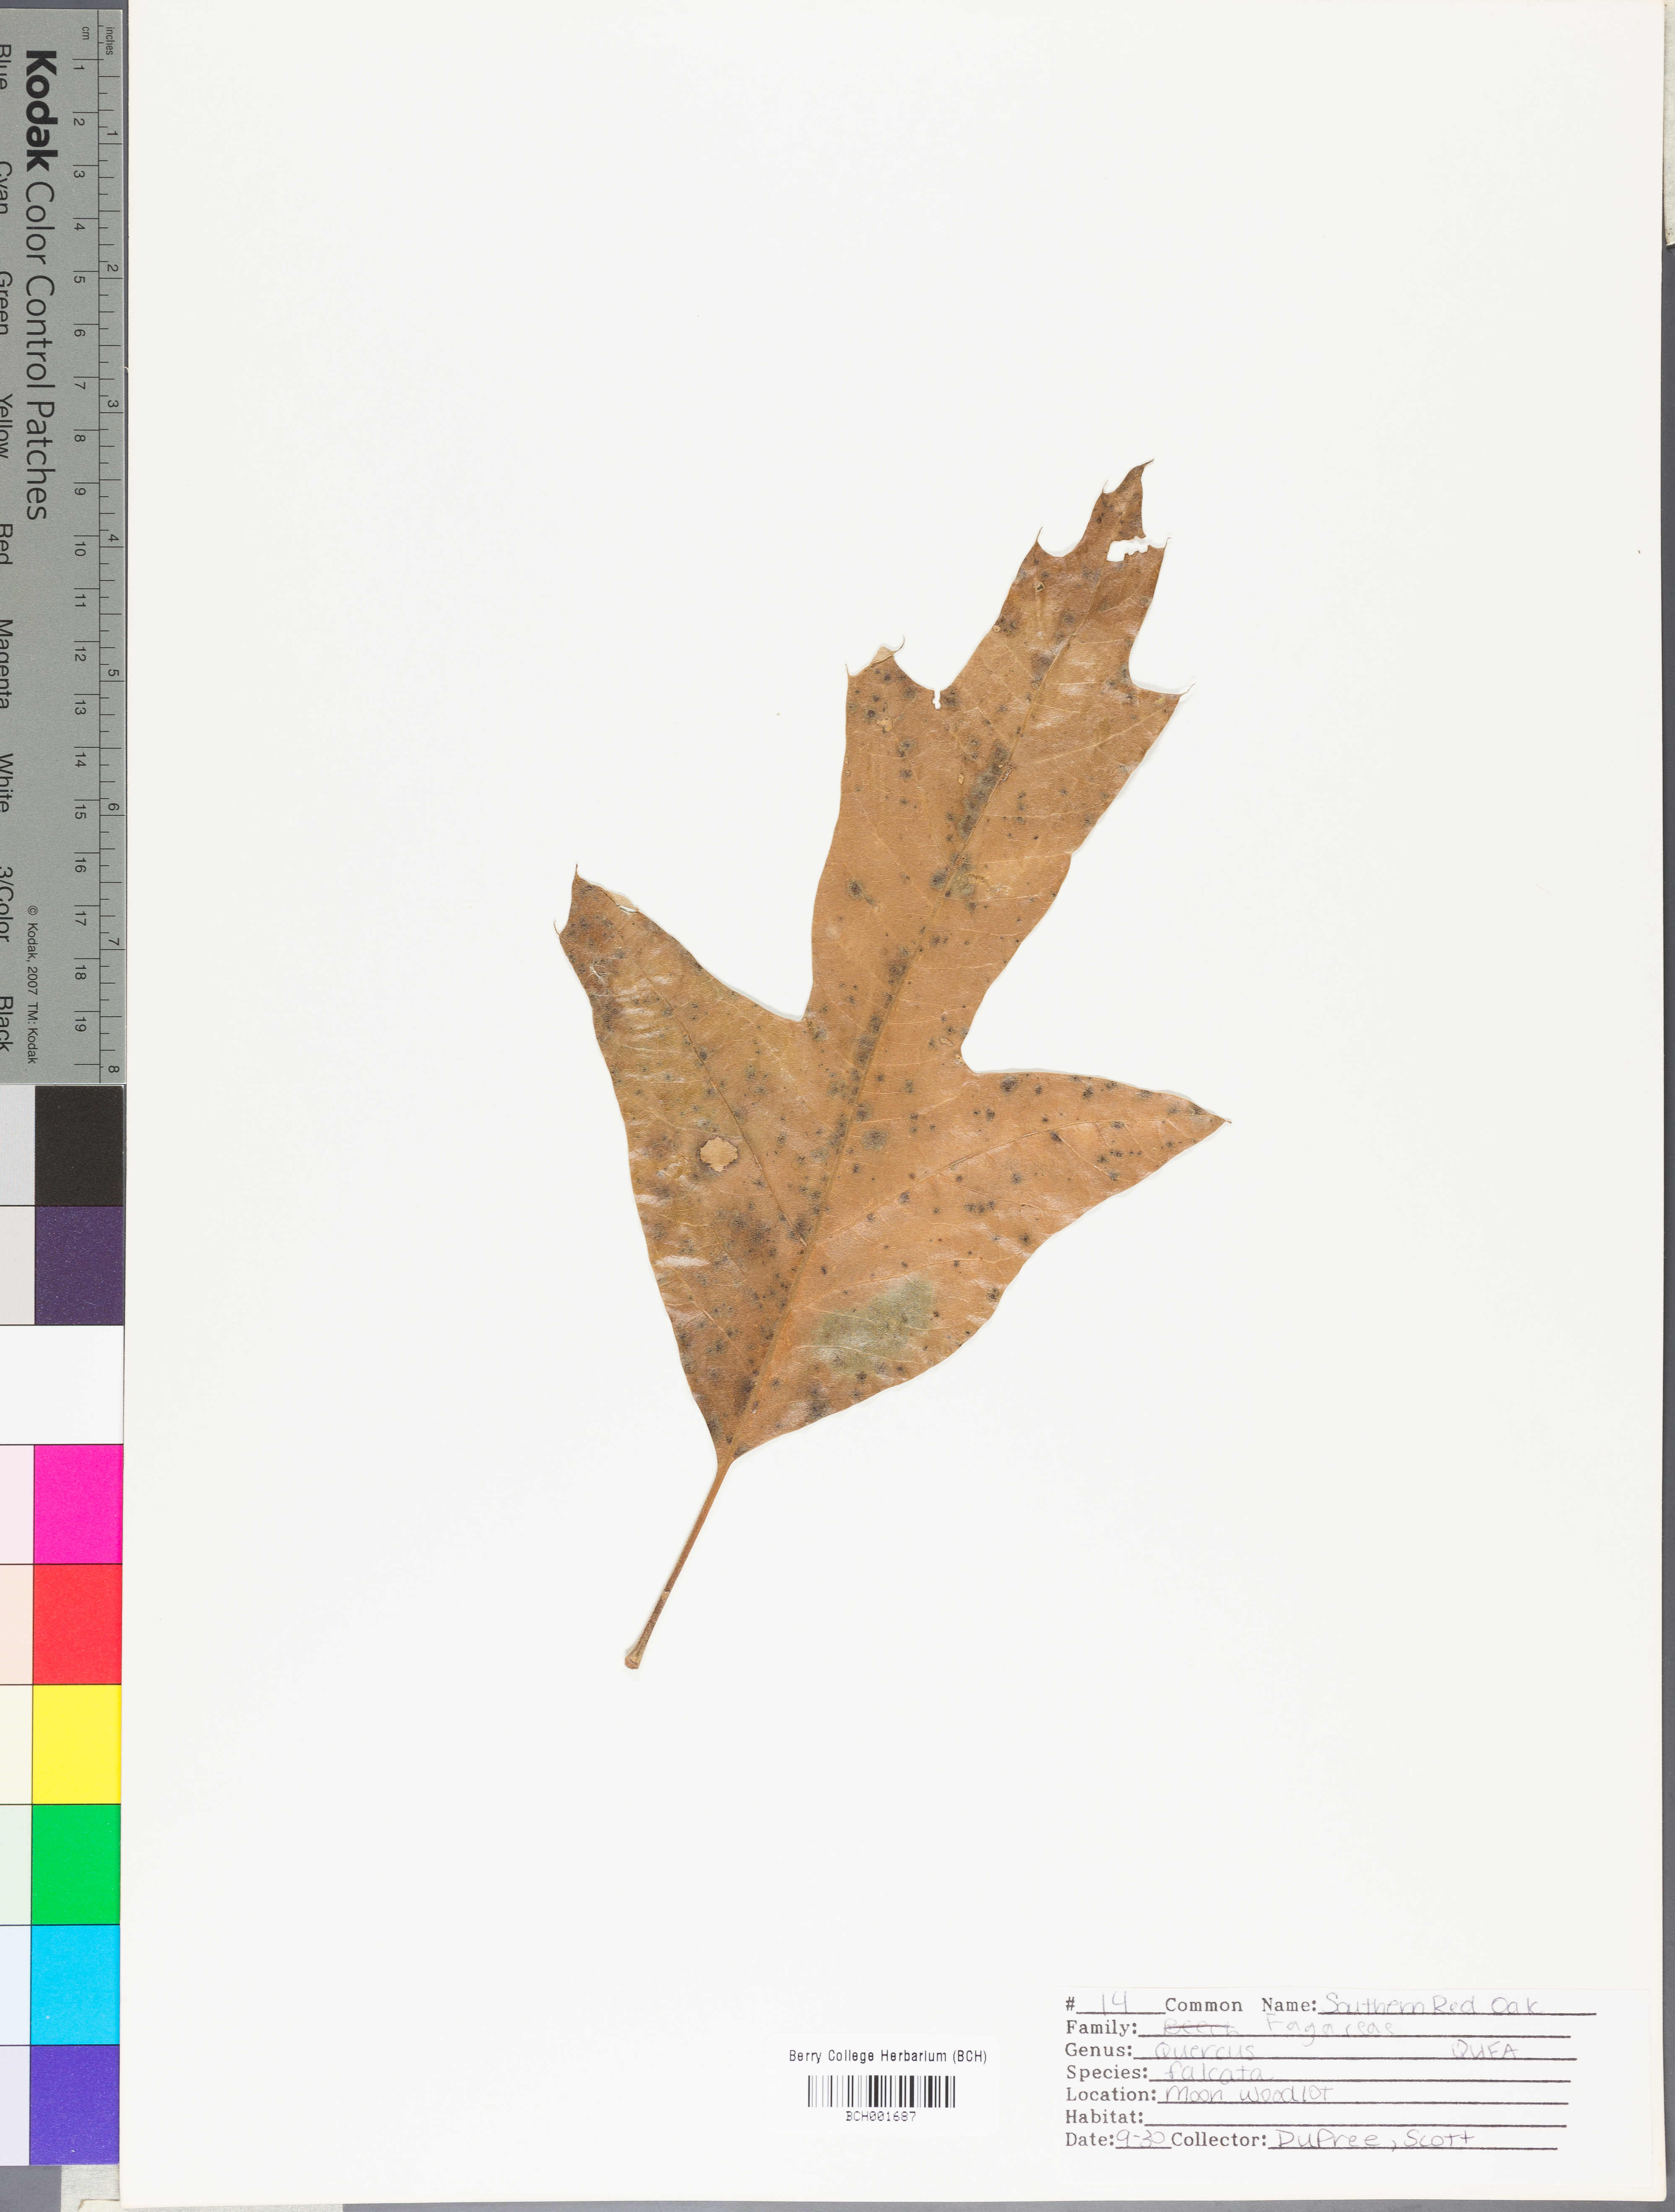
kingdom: Plantae
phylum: Tracheophyta
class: Magnoliopsida
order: Fagales
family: Fagaceae
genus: Quercus
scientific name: Quercus falcata
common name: Southern red oak
